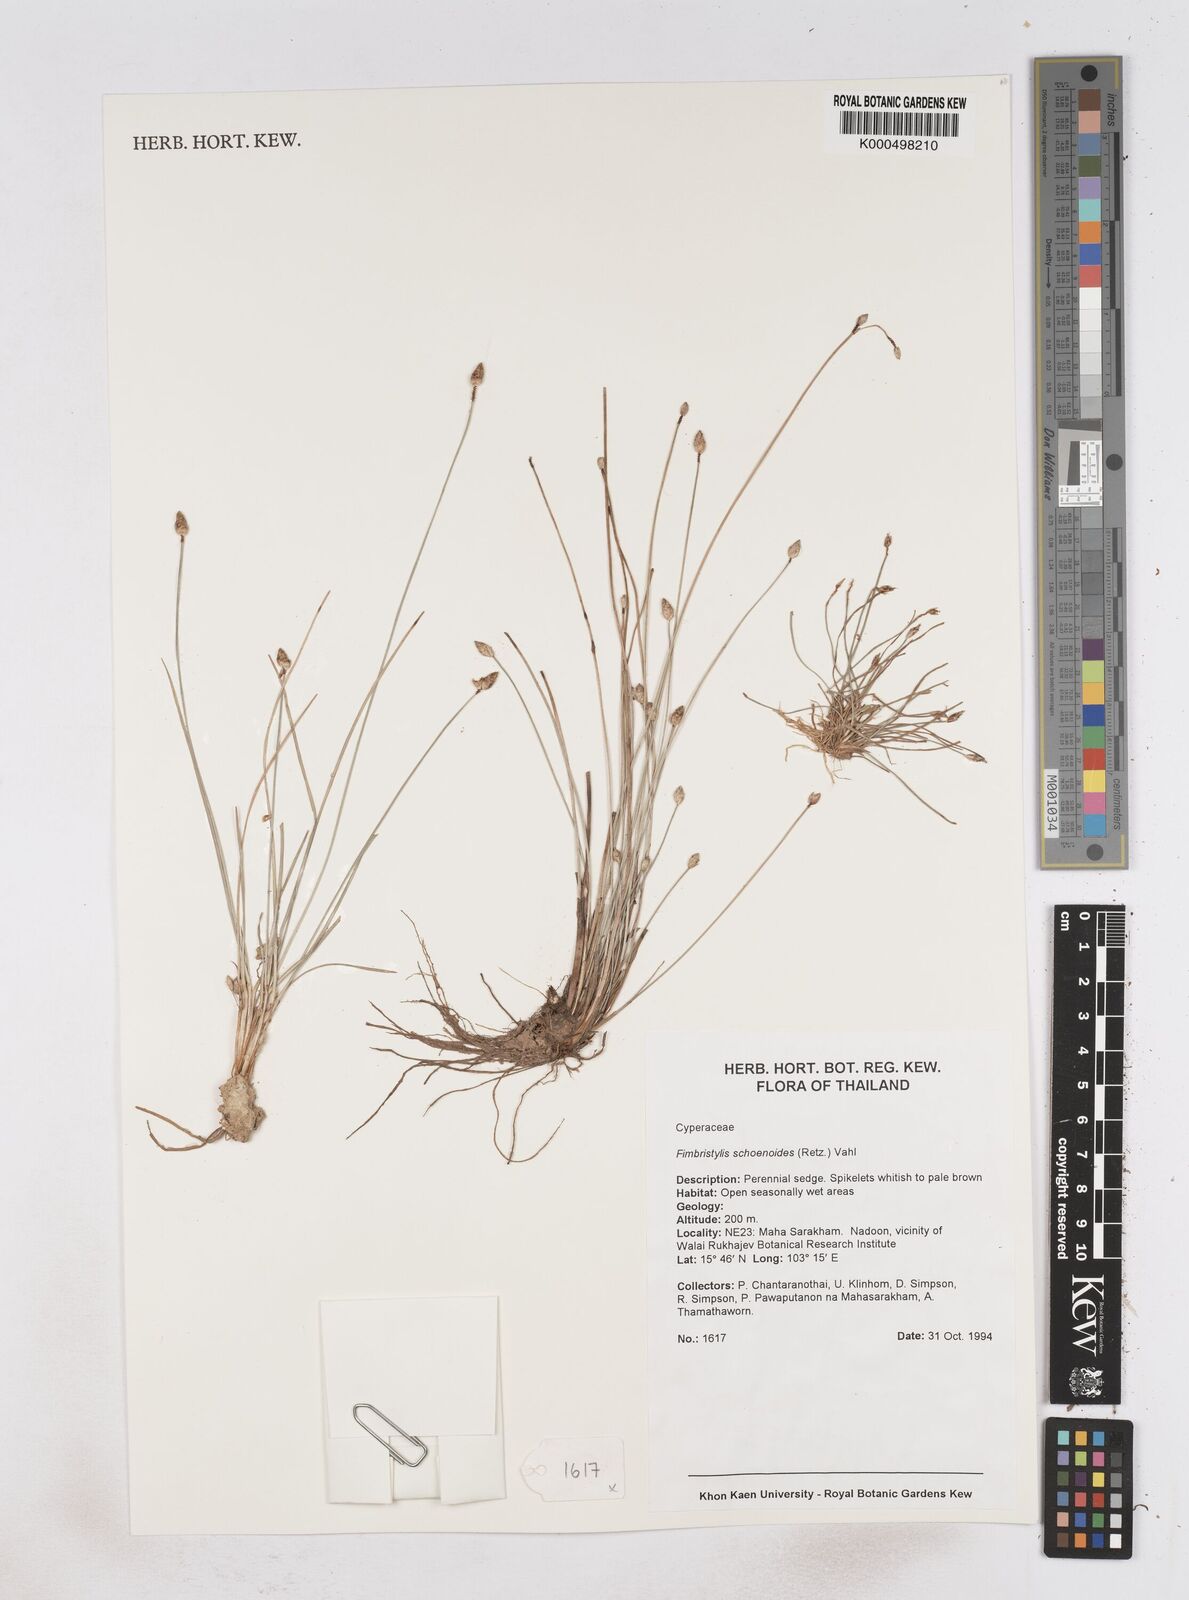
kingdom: Plantae
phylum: Tracheophyta
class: Liliopsida
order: Poales
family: Cyperaceae
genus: Fimbristylis
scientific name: Fimbristylis schoenoides
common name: Ditch fimbry
